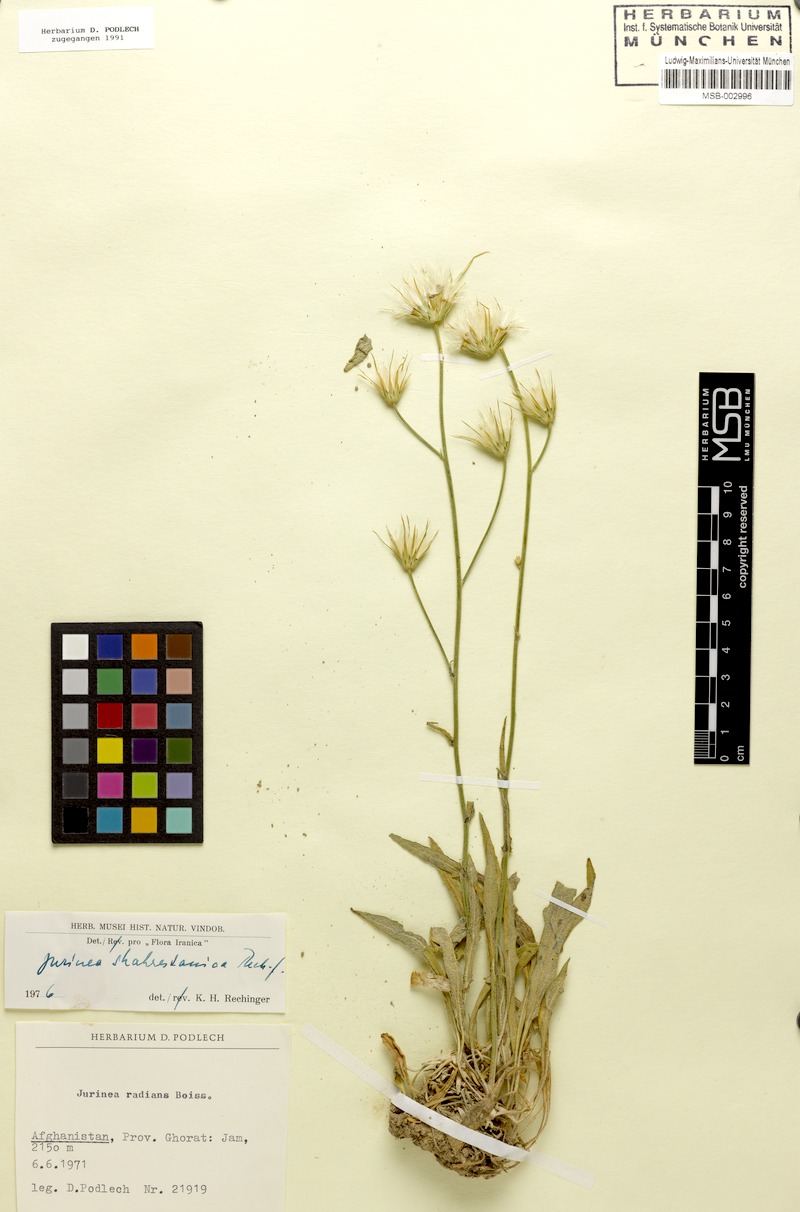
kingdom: Plantae
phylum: Tracheophyta
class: Magnoliopsida
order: Asterales
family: Asteraceae
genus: Jurinea
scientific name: Jurinea shahrestanica
